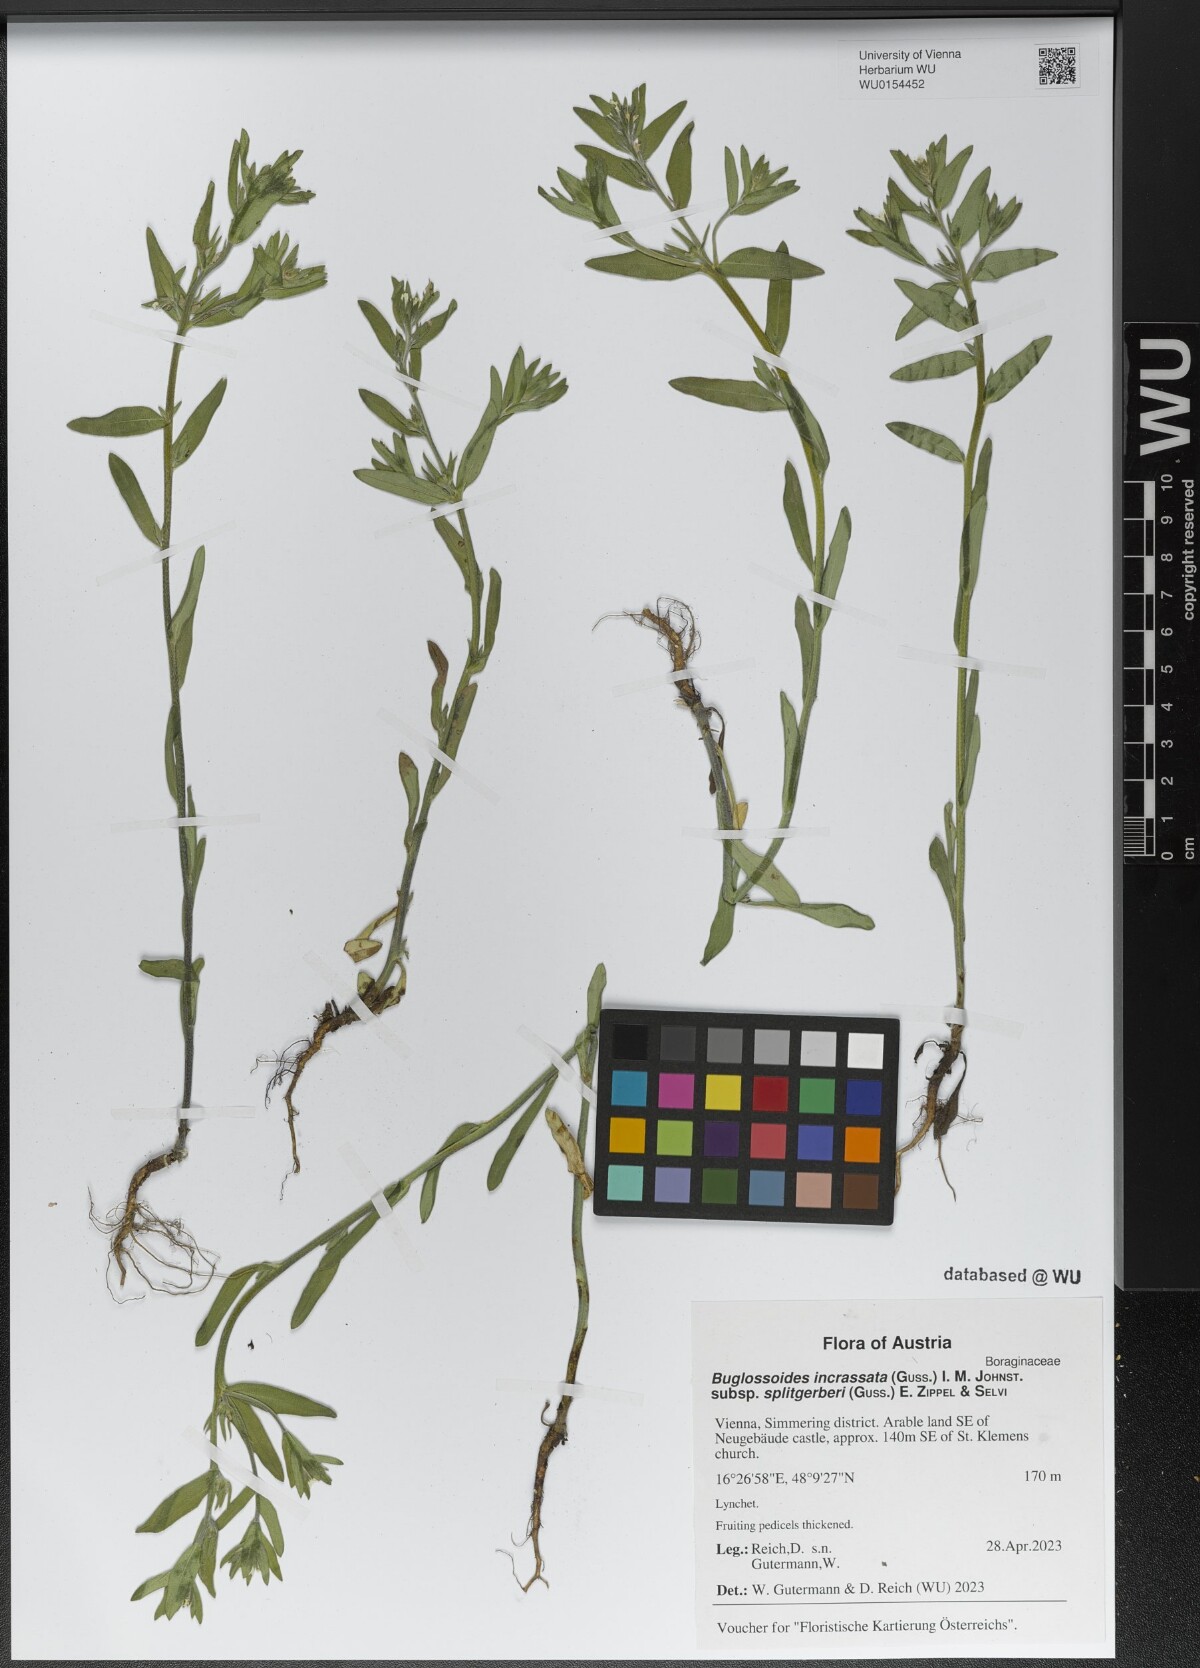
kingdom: Plantae
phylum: Tracheophyta
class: Magnoliopsida
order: Boraginales
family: Boraginaceae
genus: Buglossoides
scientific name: Buglossoides incrassata
